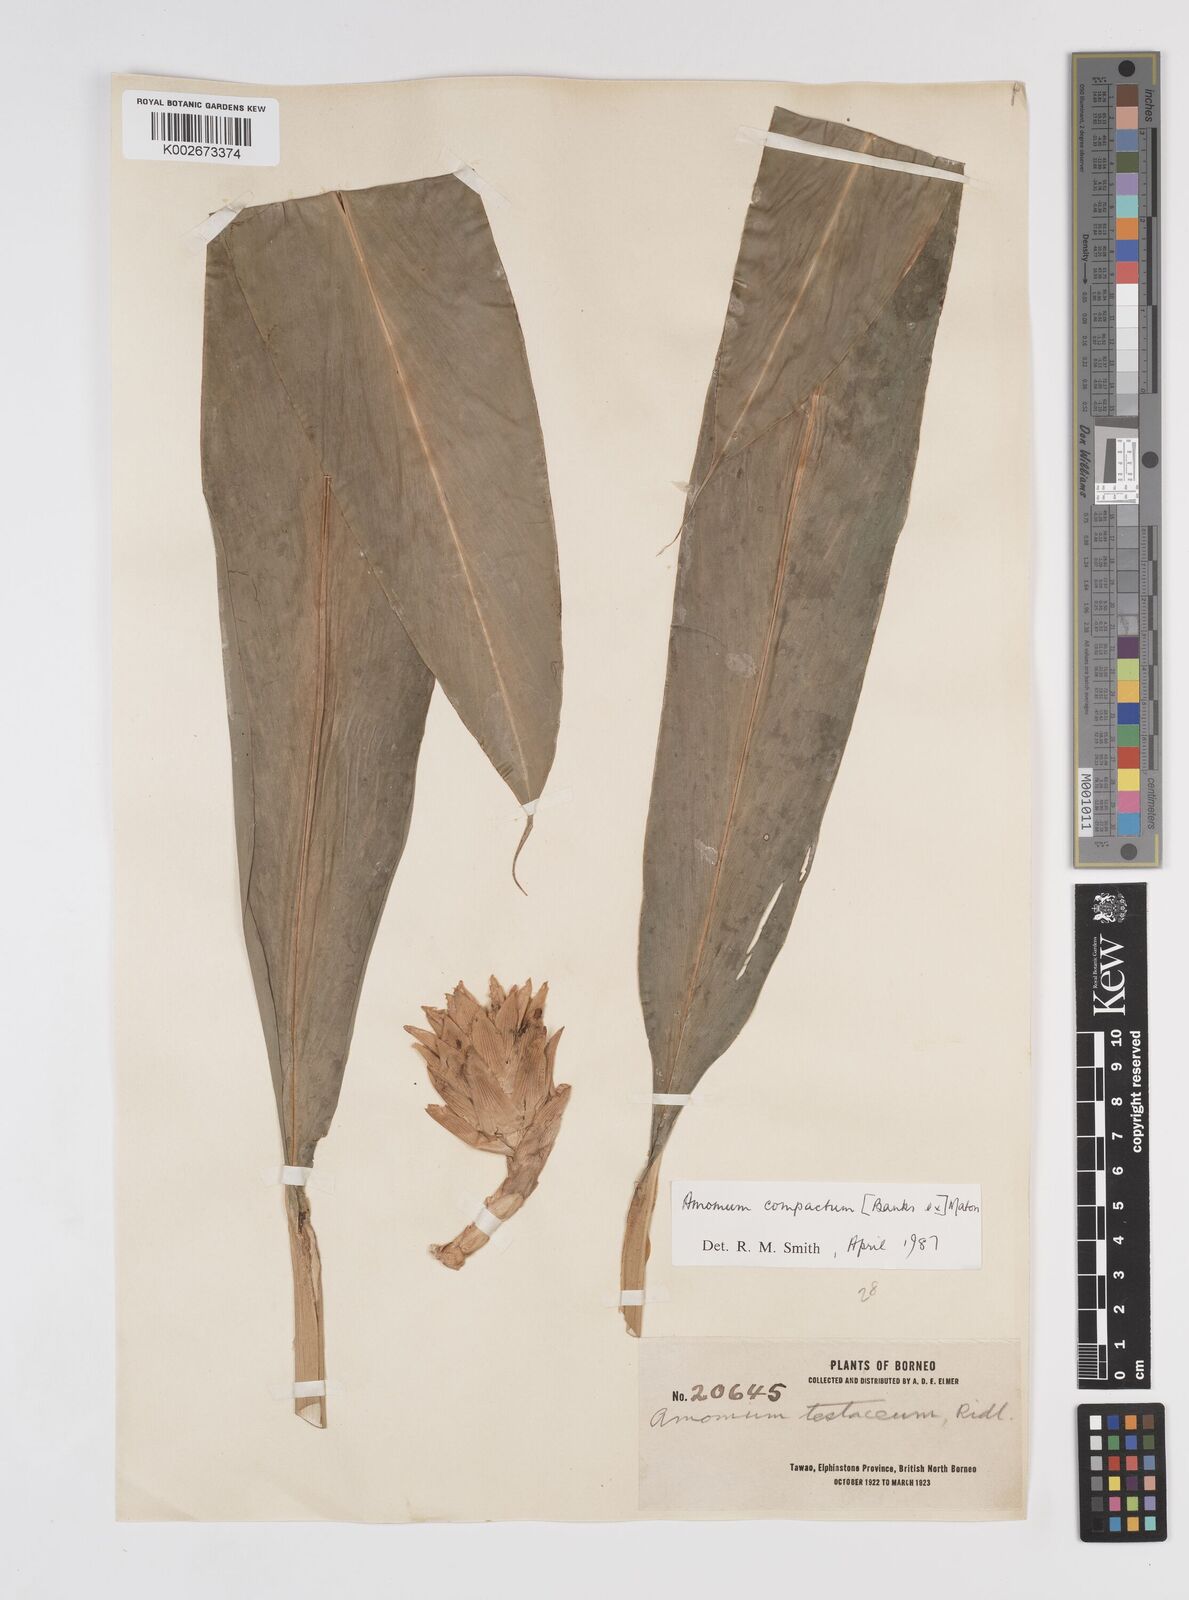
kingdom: Plantae
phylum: Tracheophyta
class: Liliopsida
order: Zingiberales
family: Zingiberaceae
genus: Wurfbainia
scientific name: Wurfbainia compacta
